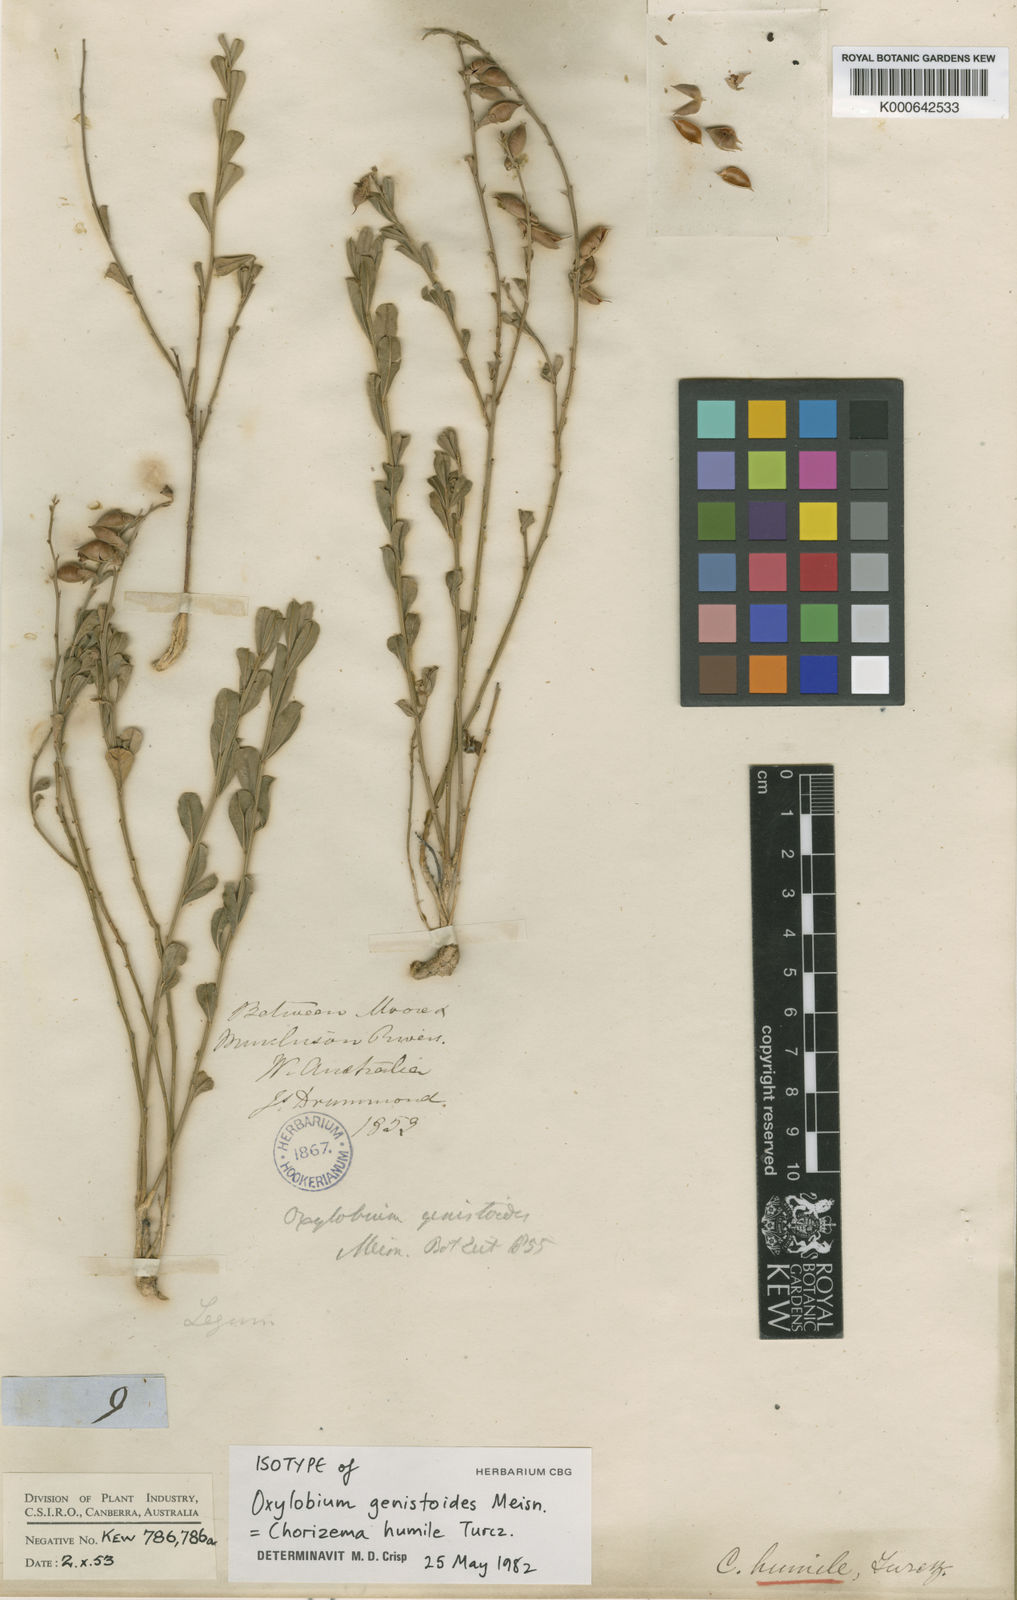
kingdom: Plantae
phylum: Tracheophyta
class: Magnoliopsida
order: Fabales
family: Fabaceae
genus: Chorizema
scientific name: Chorizema humile
